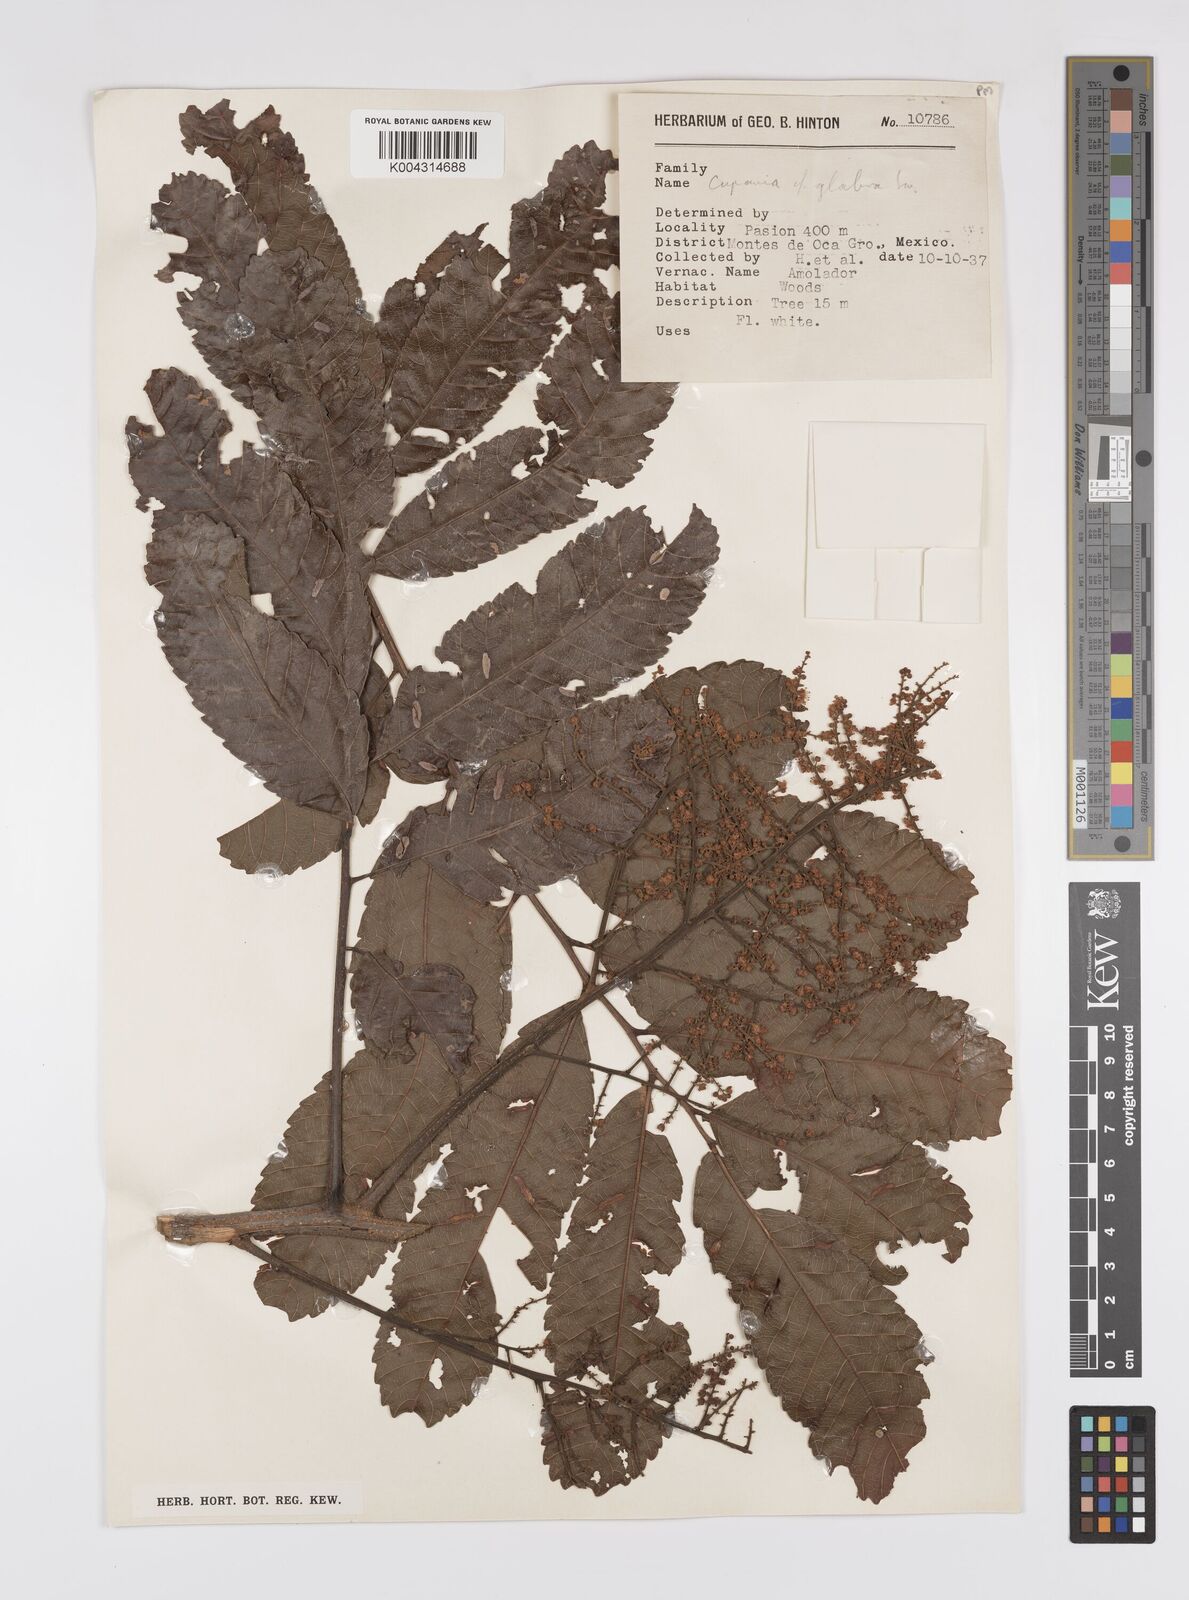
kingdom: Plantae
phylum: Tracheophyta
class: Magnoliopsida
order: Sapindales
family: Sapindaceae
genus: Cupania
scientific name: Cupania
